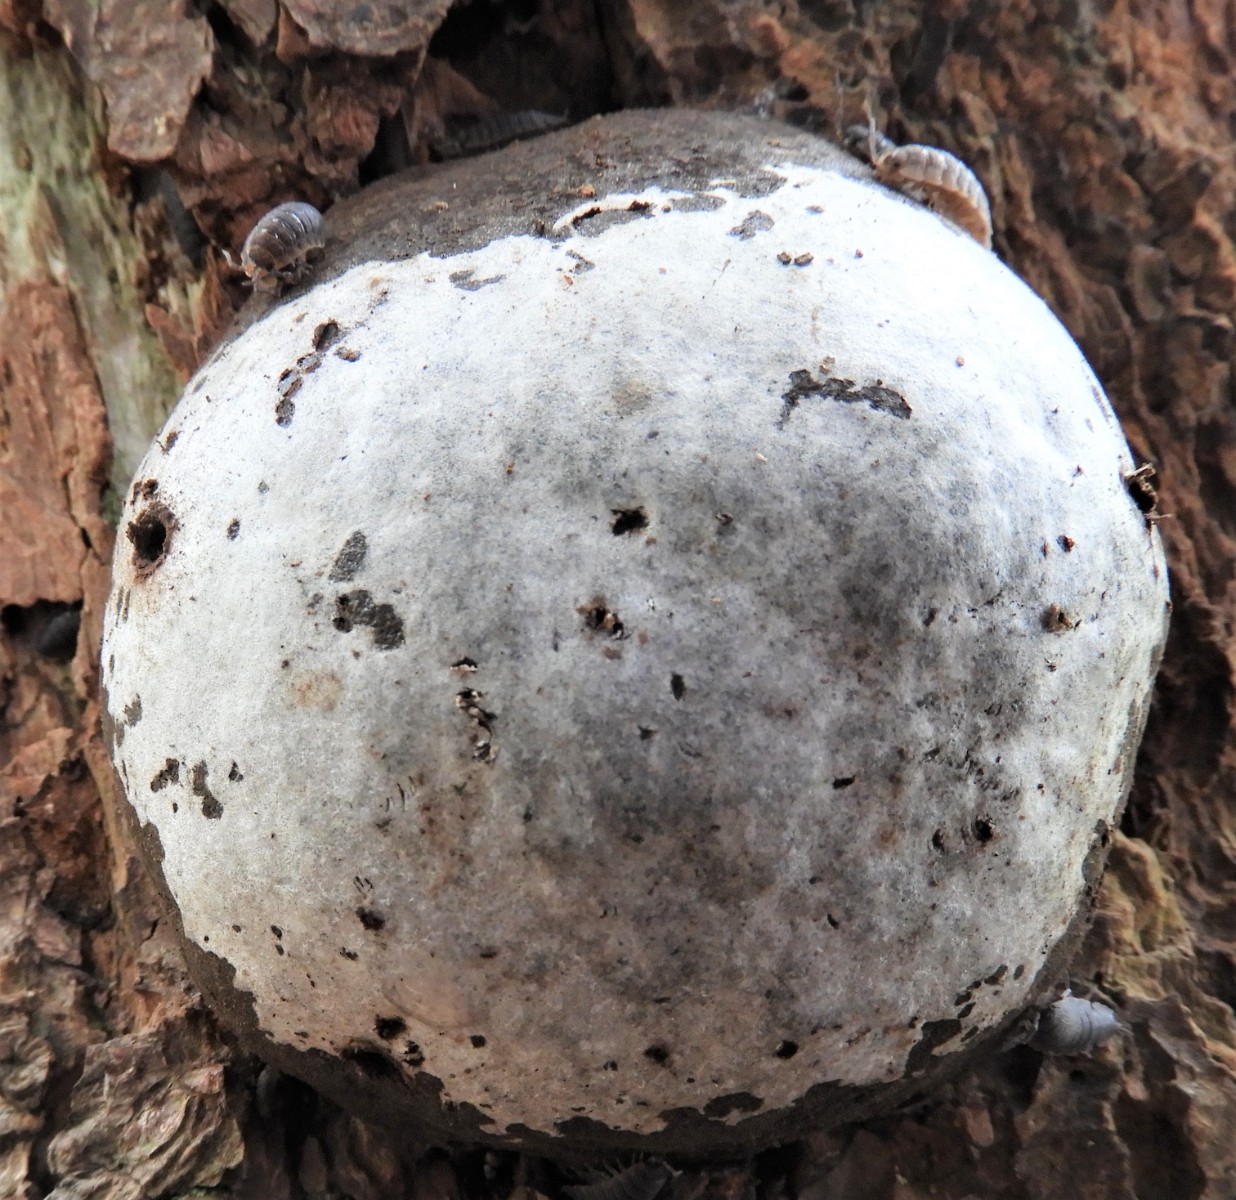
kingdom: Protozoa
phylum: Mycetozoa
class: Myxomycetes
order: Cribrariales
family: Tubiferaceae
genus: Reticularia
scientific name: Reticularia lycoperdon
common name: skinnende støvpude
